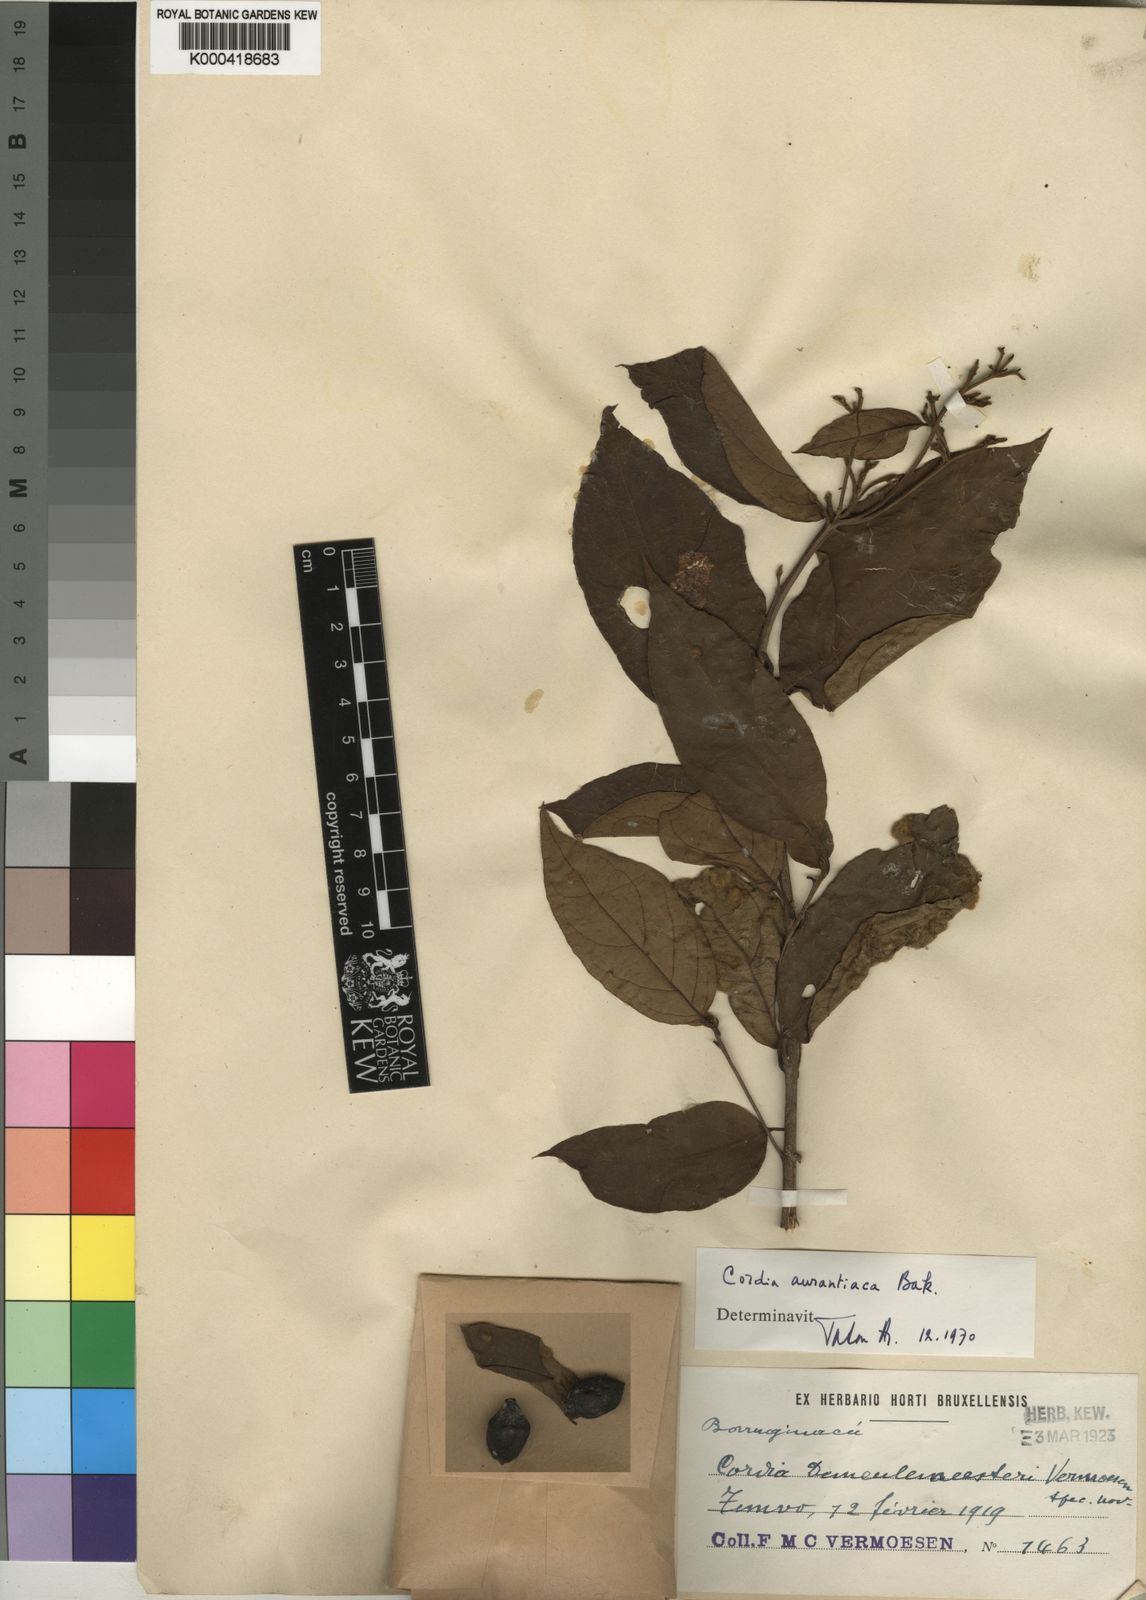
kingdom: Plantae
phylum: Tracheophyta
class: Magnoliopsida
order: Boraginales
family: Cordiaceae
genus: Cordia
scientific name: Cordia aurantiaca
